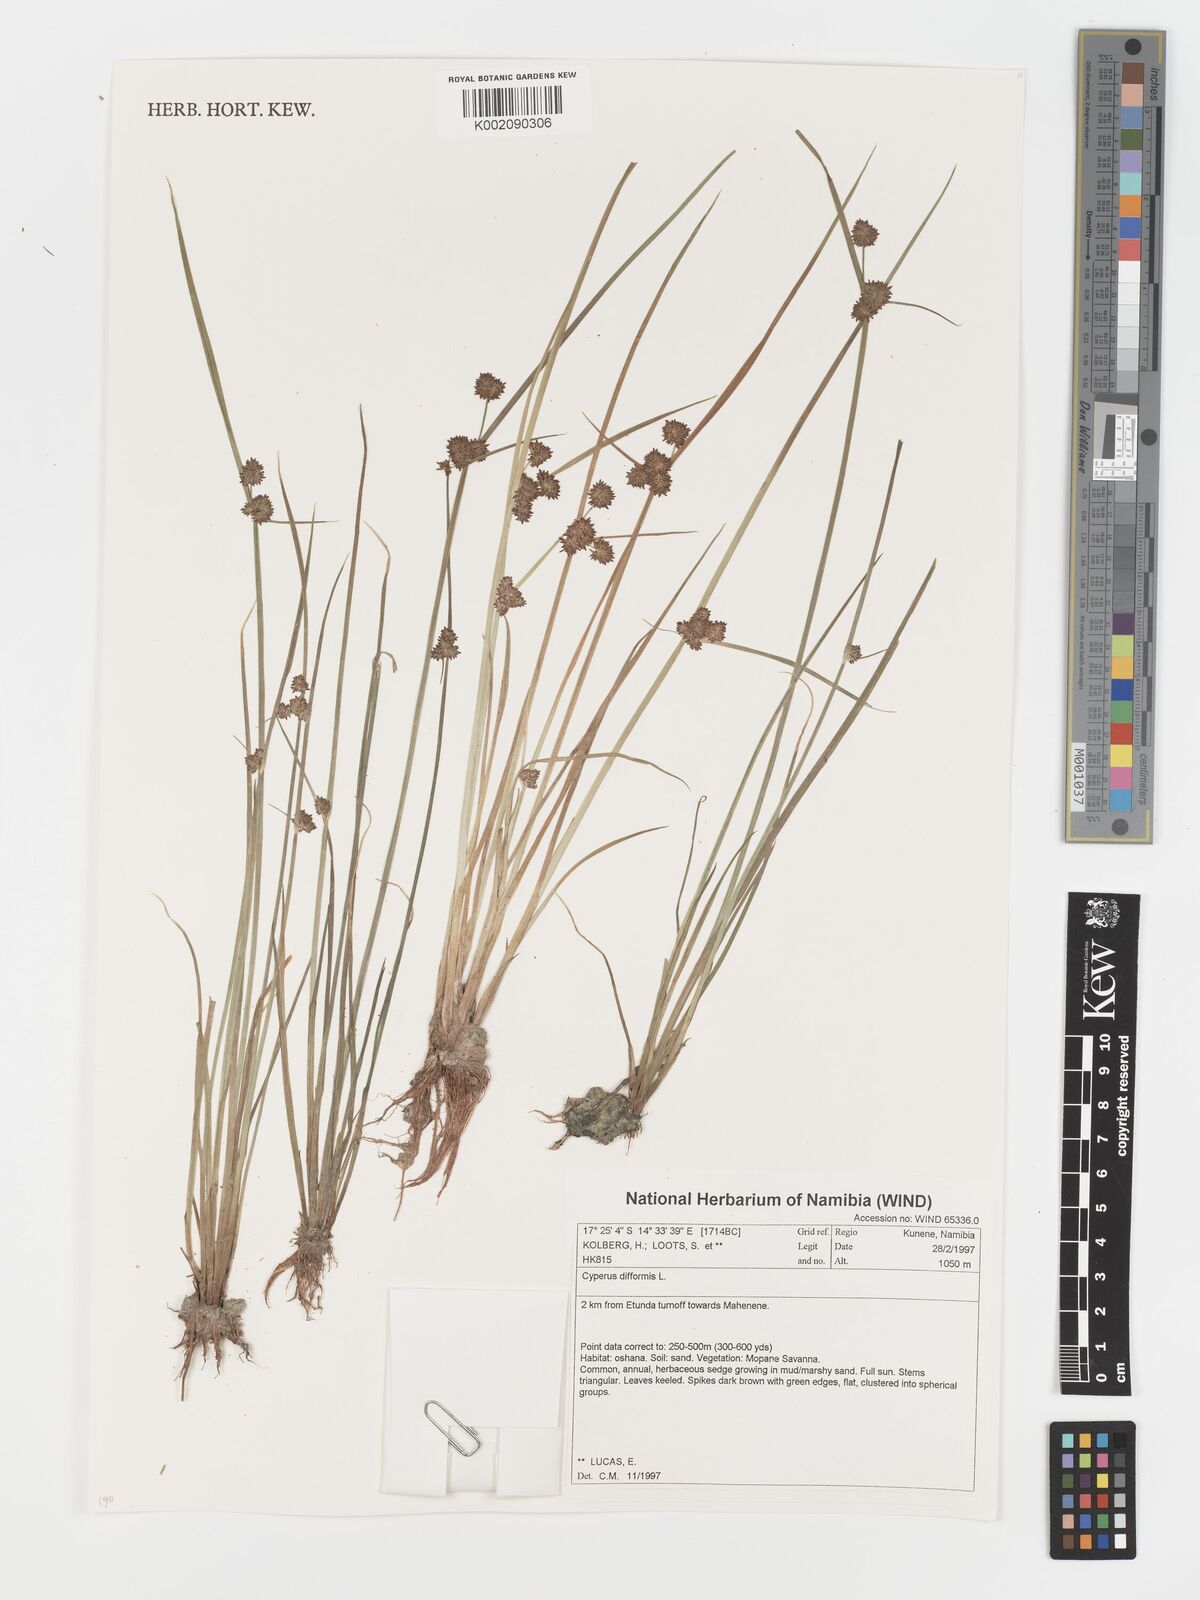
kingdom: Plantae
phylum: Tracheophyta
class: Liliopsida
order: Poales
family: Cyperaceae
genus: Cyperus
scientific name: Cyperus difformis
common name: Variable flatsedge
